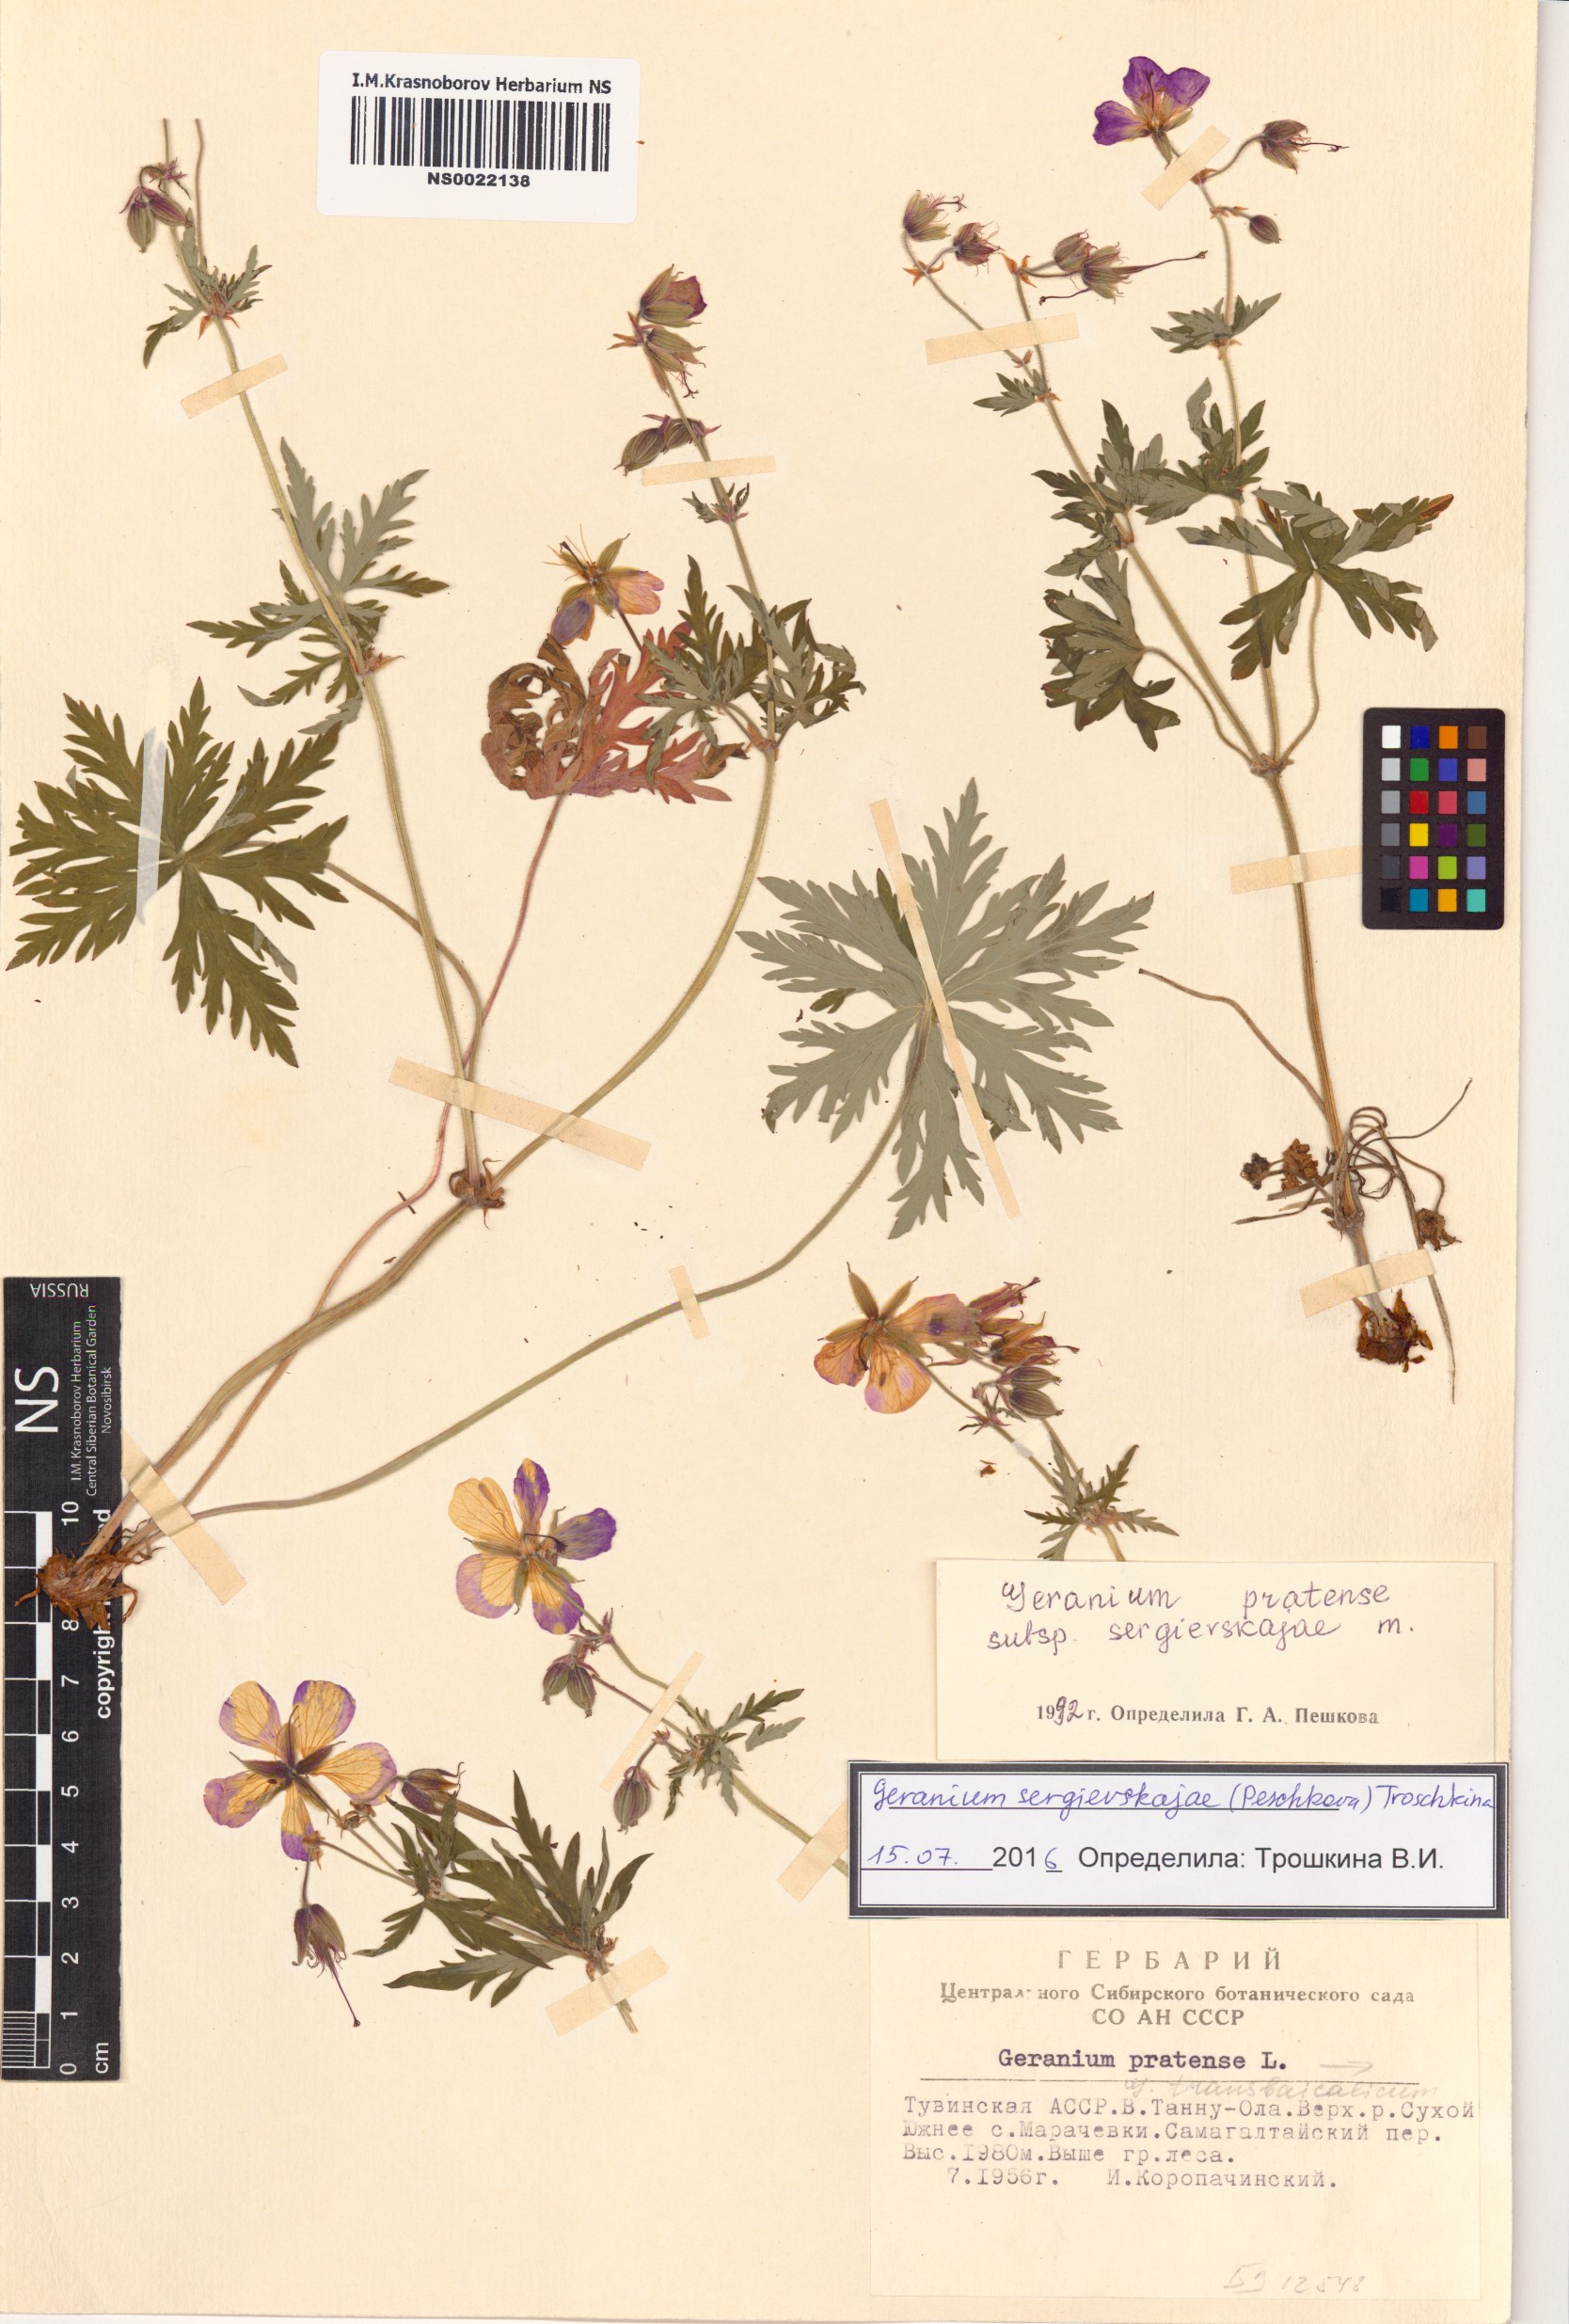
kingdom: Plantae
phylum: Tracheophyta
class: Magnoliopsida
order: Geraniales
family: Geraniaceae
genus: Geranium
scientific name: Geranium pratense
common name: Meadow crane's-bill
